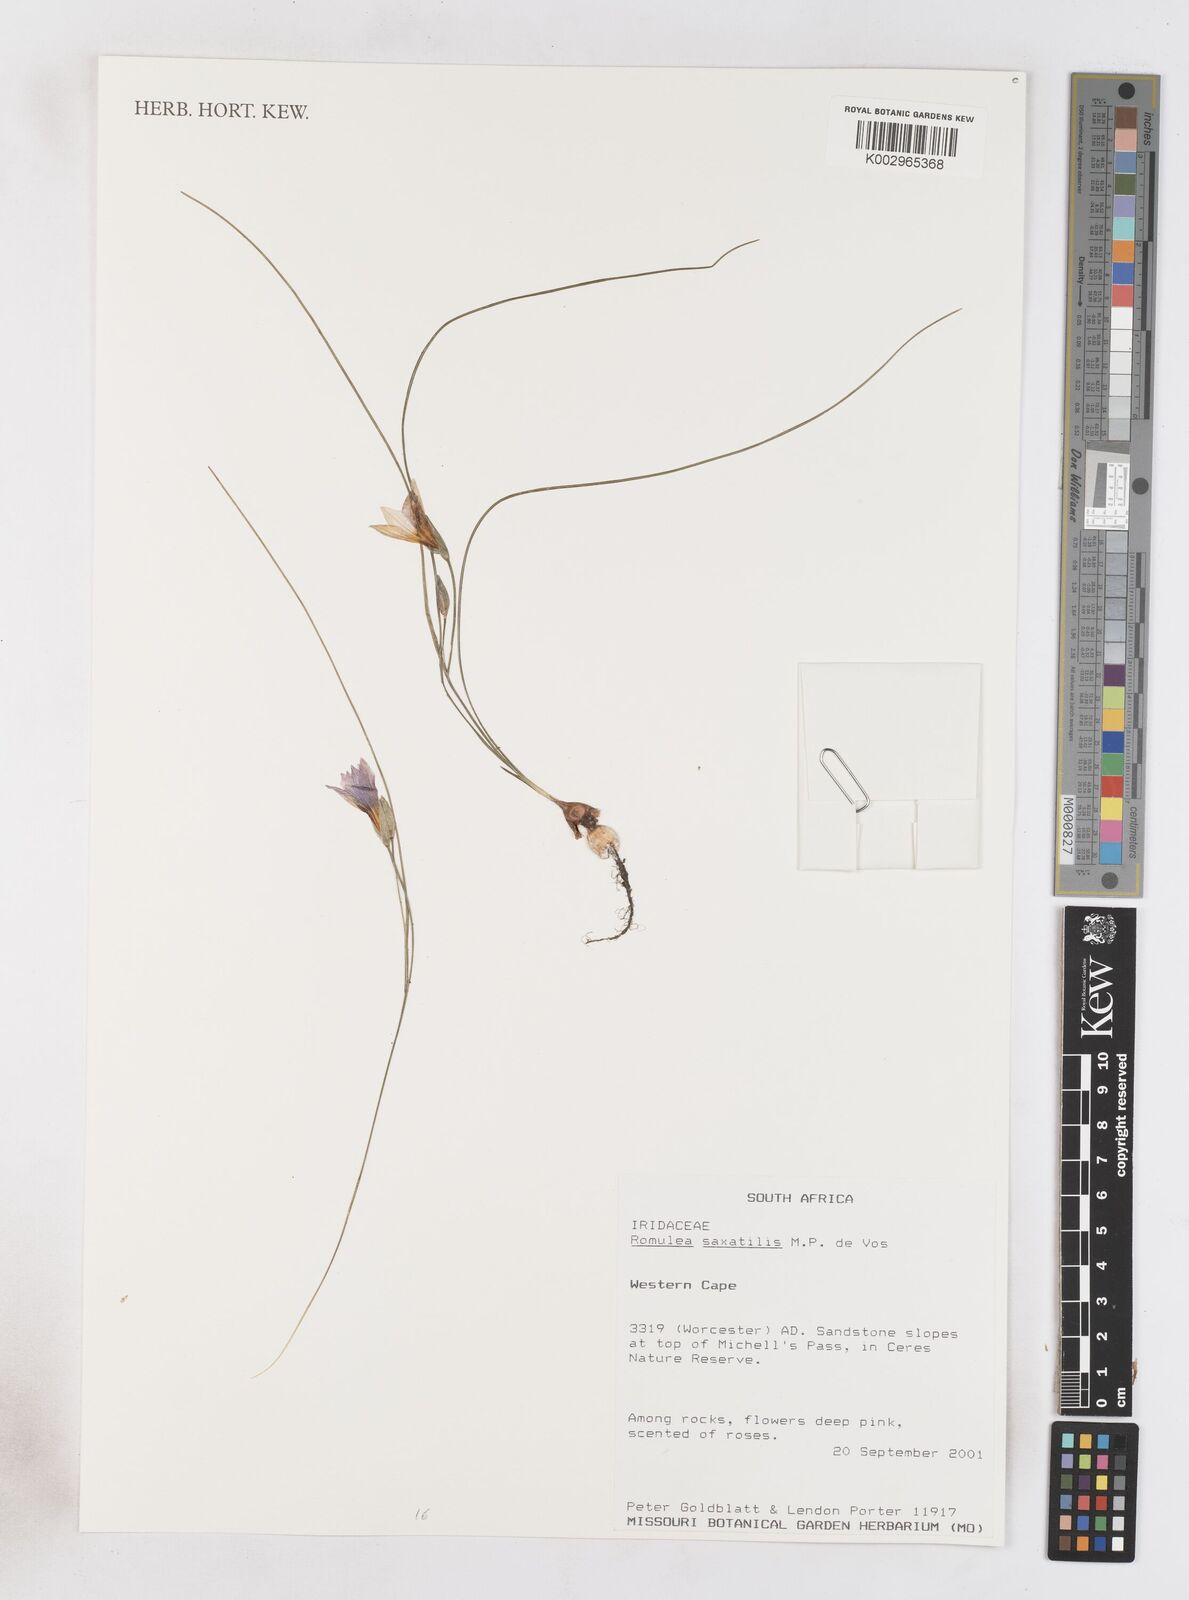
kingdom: Plantae
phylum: Tracheophyta
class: Liliopsida
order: Asparagales
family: Iridaceae
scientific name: Iridaceae
